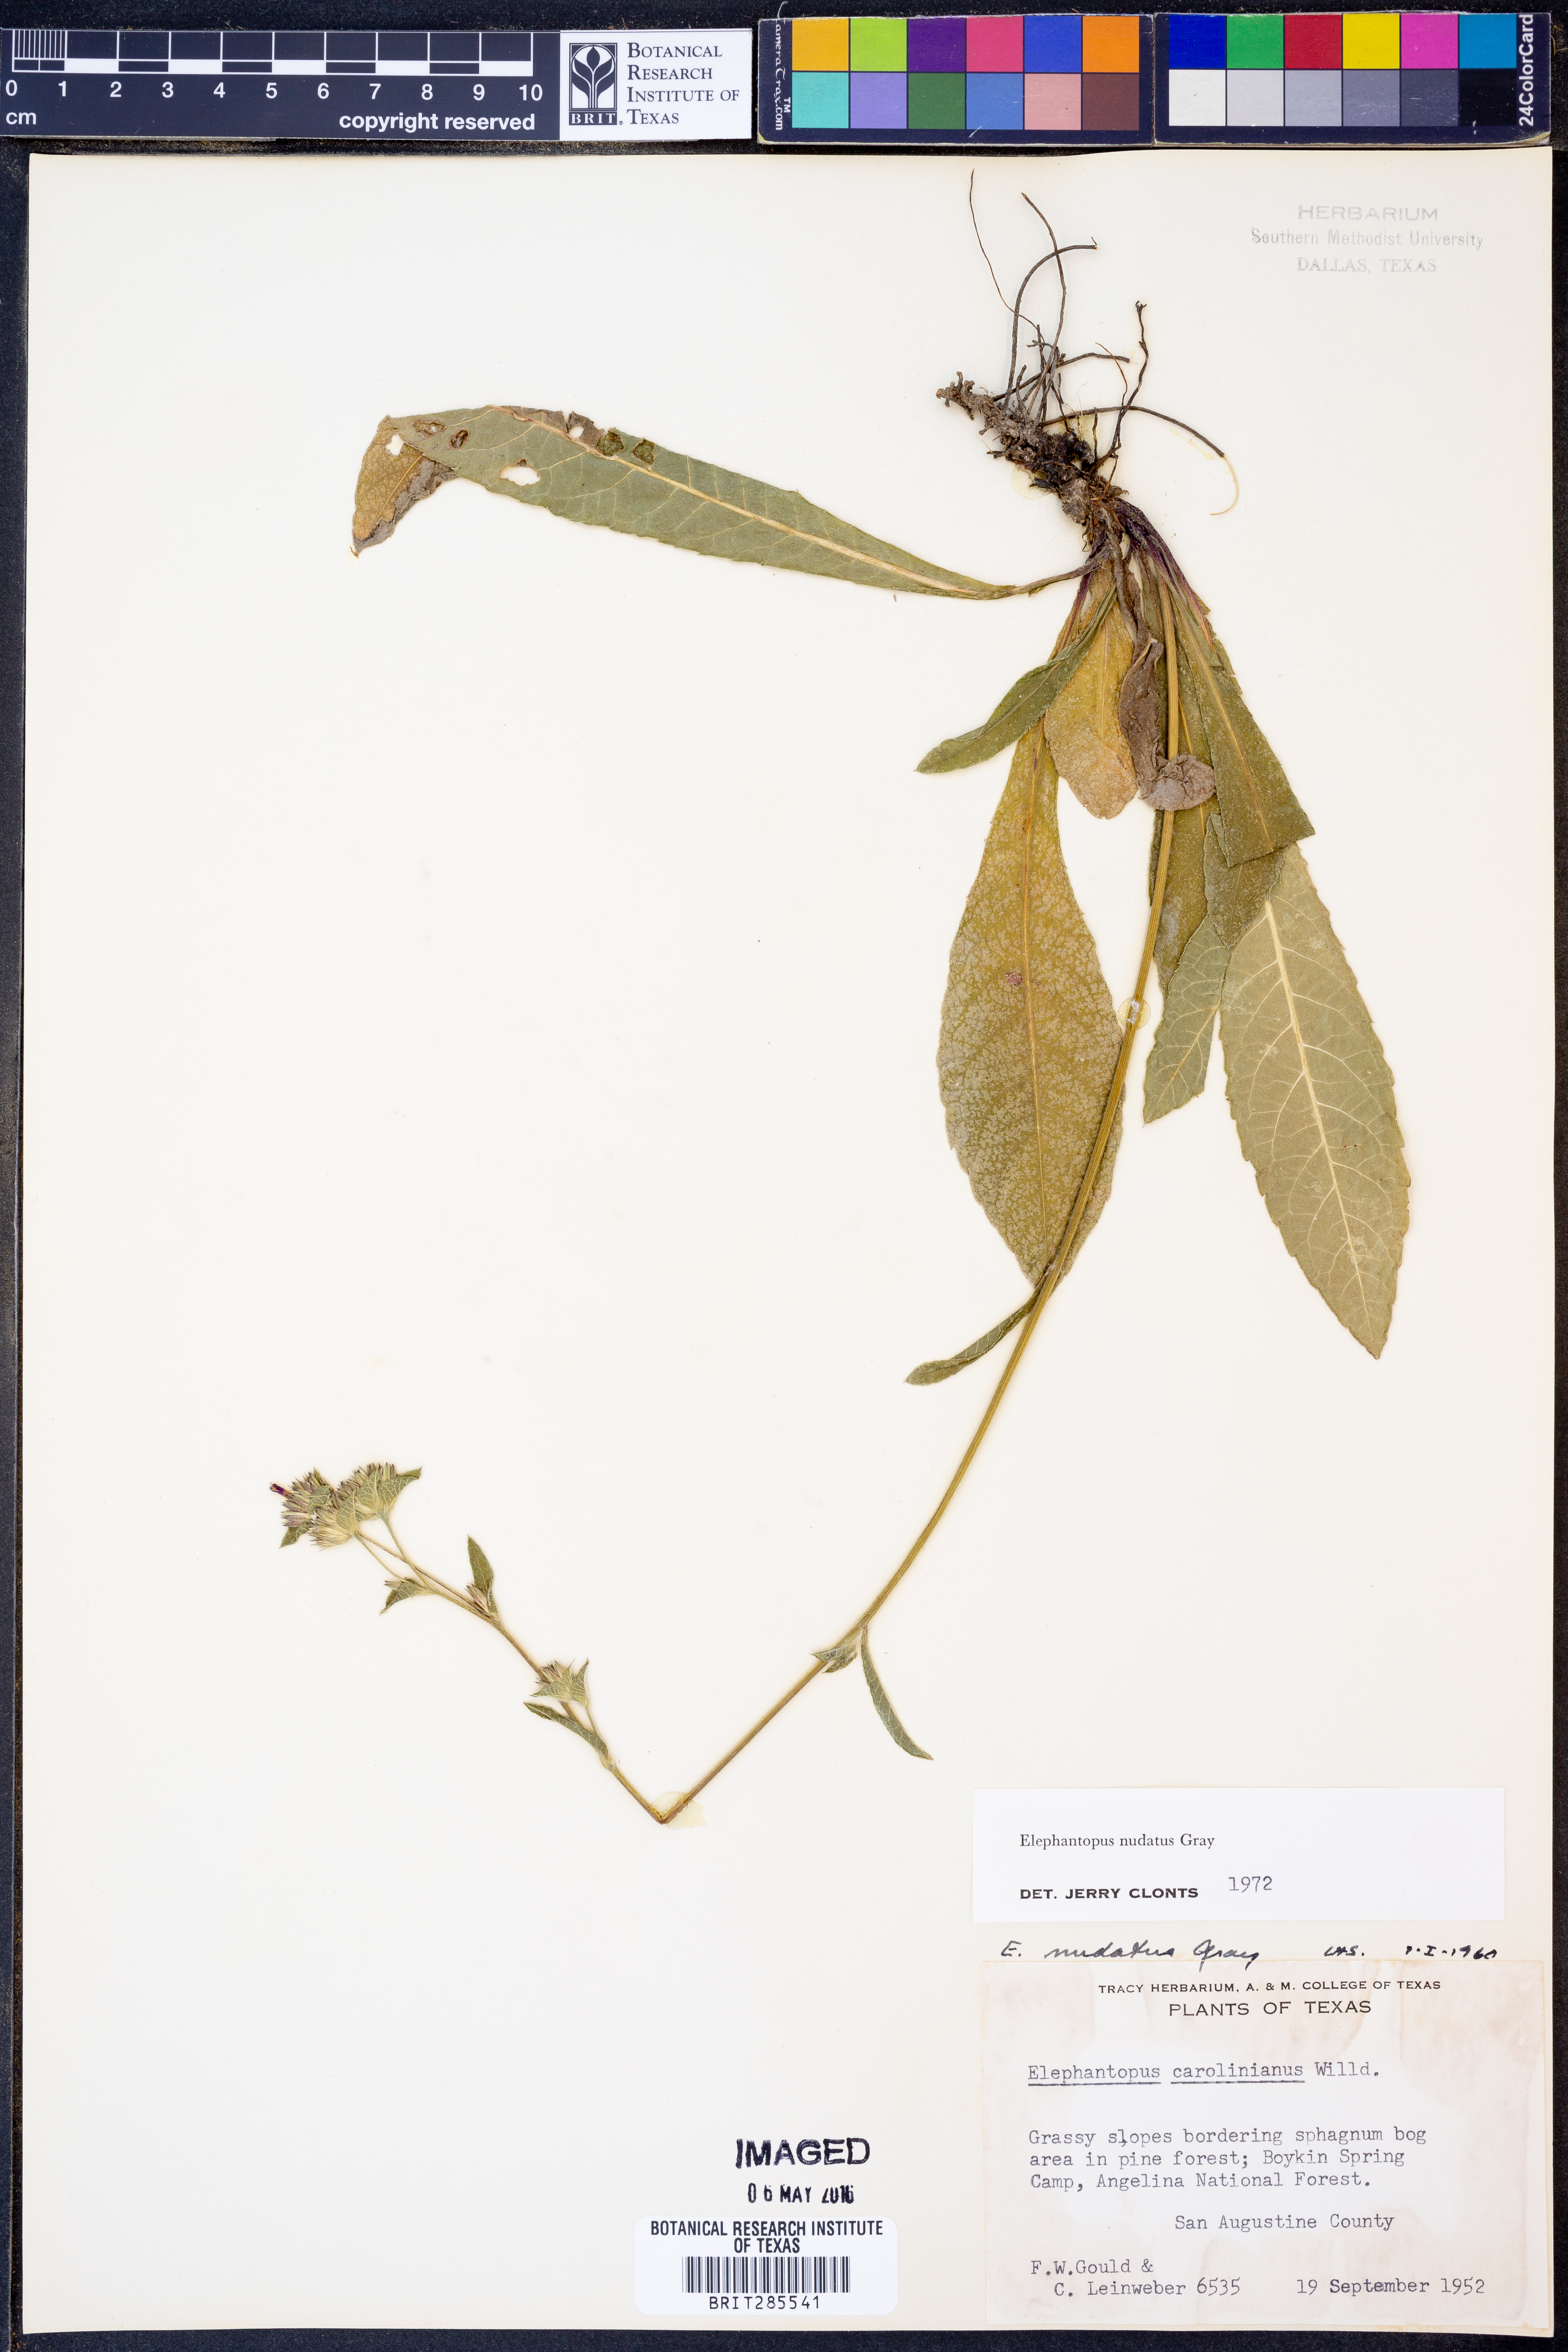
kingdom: Plantae
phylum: Tracheophyta
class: Magnoliopsida
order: Asterales
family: Asteraceae
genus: Elephantopus
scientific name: Elephantopus nudatus
